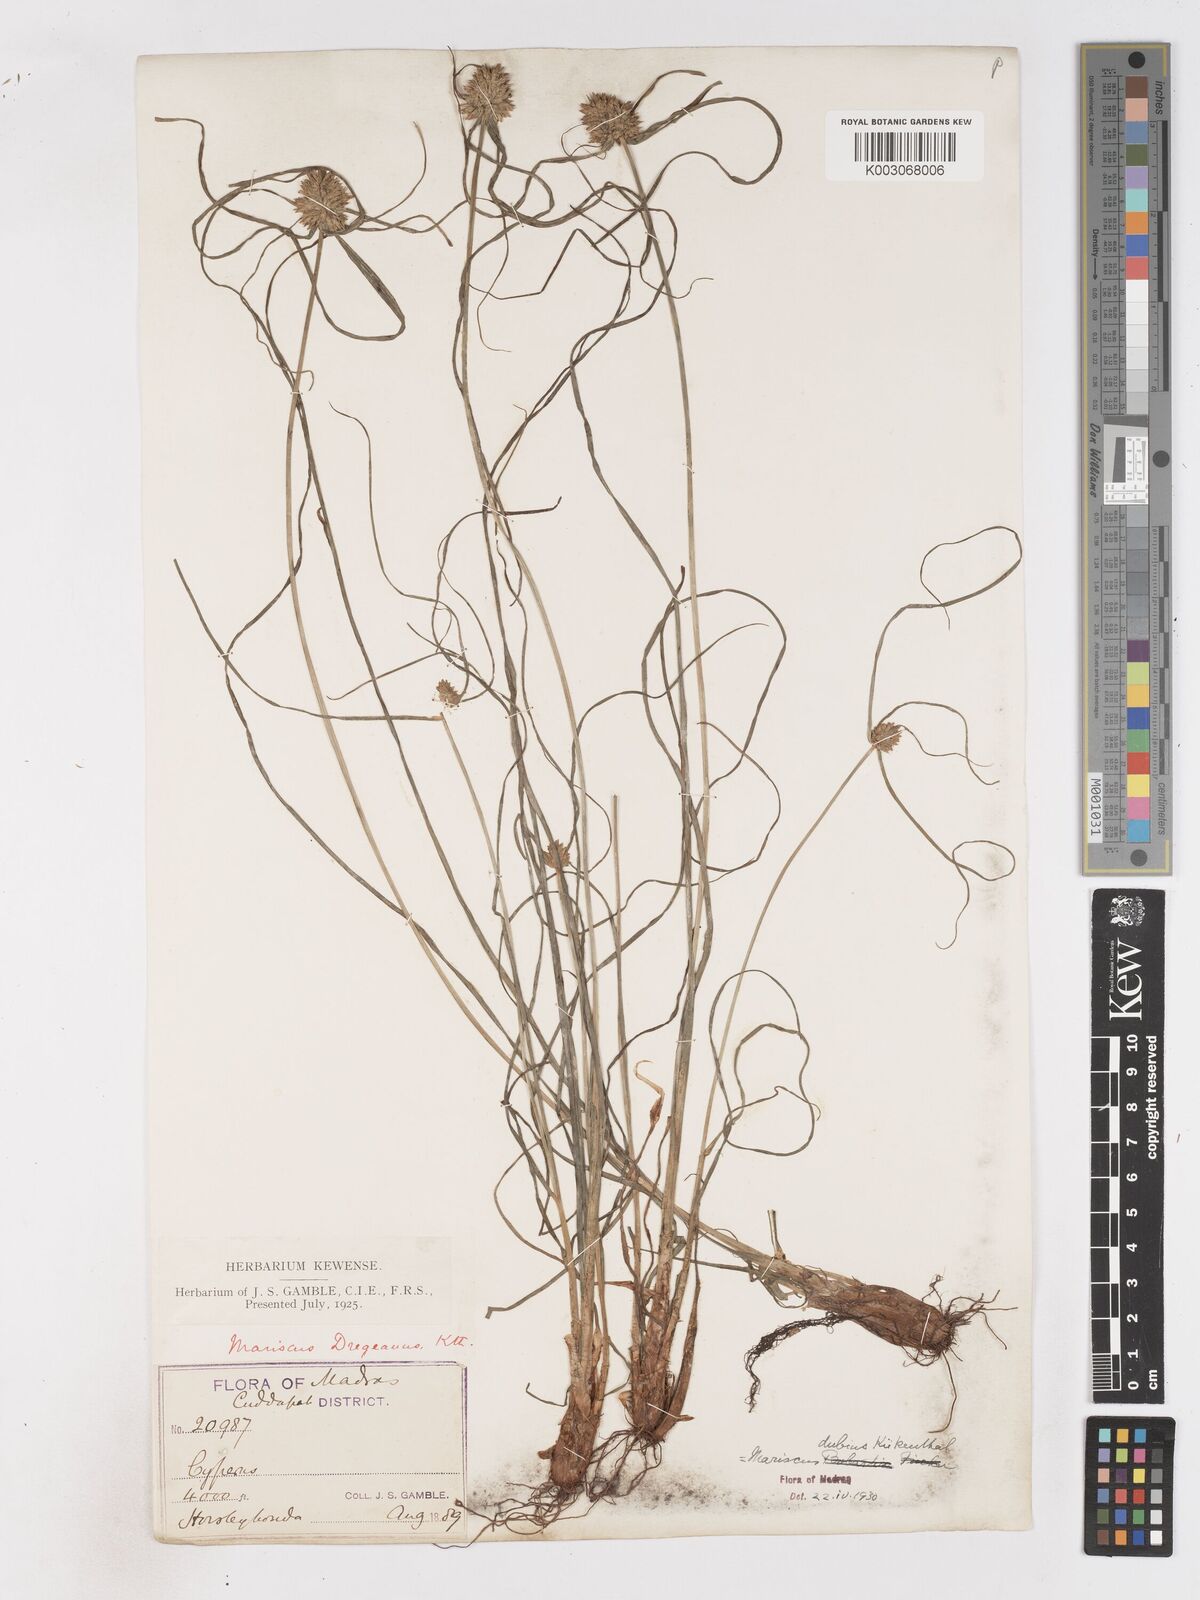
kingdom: Plantae
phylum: Tracheophyta
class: Liliopsida
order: Poales
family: Cyperaceae
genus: Cyperus
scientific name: Cyperus dubius
